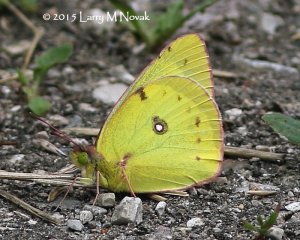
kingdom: Animalia
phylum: Arthropoda
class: Insecta
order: Lepidoptera
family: Pieridae
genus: Colias
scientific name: Colias philodice
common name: Clouded Sulphur
